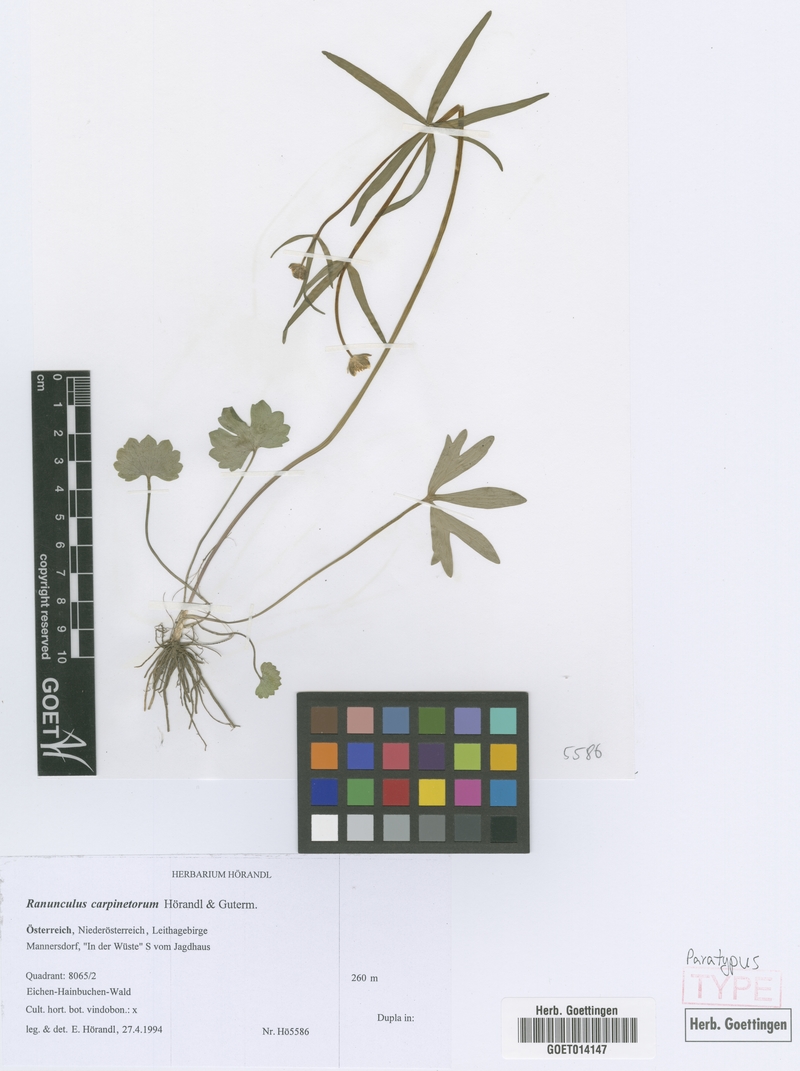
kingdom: Plantae
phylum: Tracheophyta
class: Magnoliopsida
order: Ranunculales
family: Ranunculaceae
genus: Ranunculus
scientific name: Ranunculus carpinetorum
